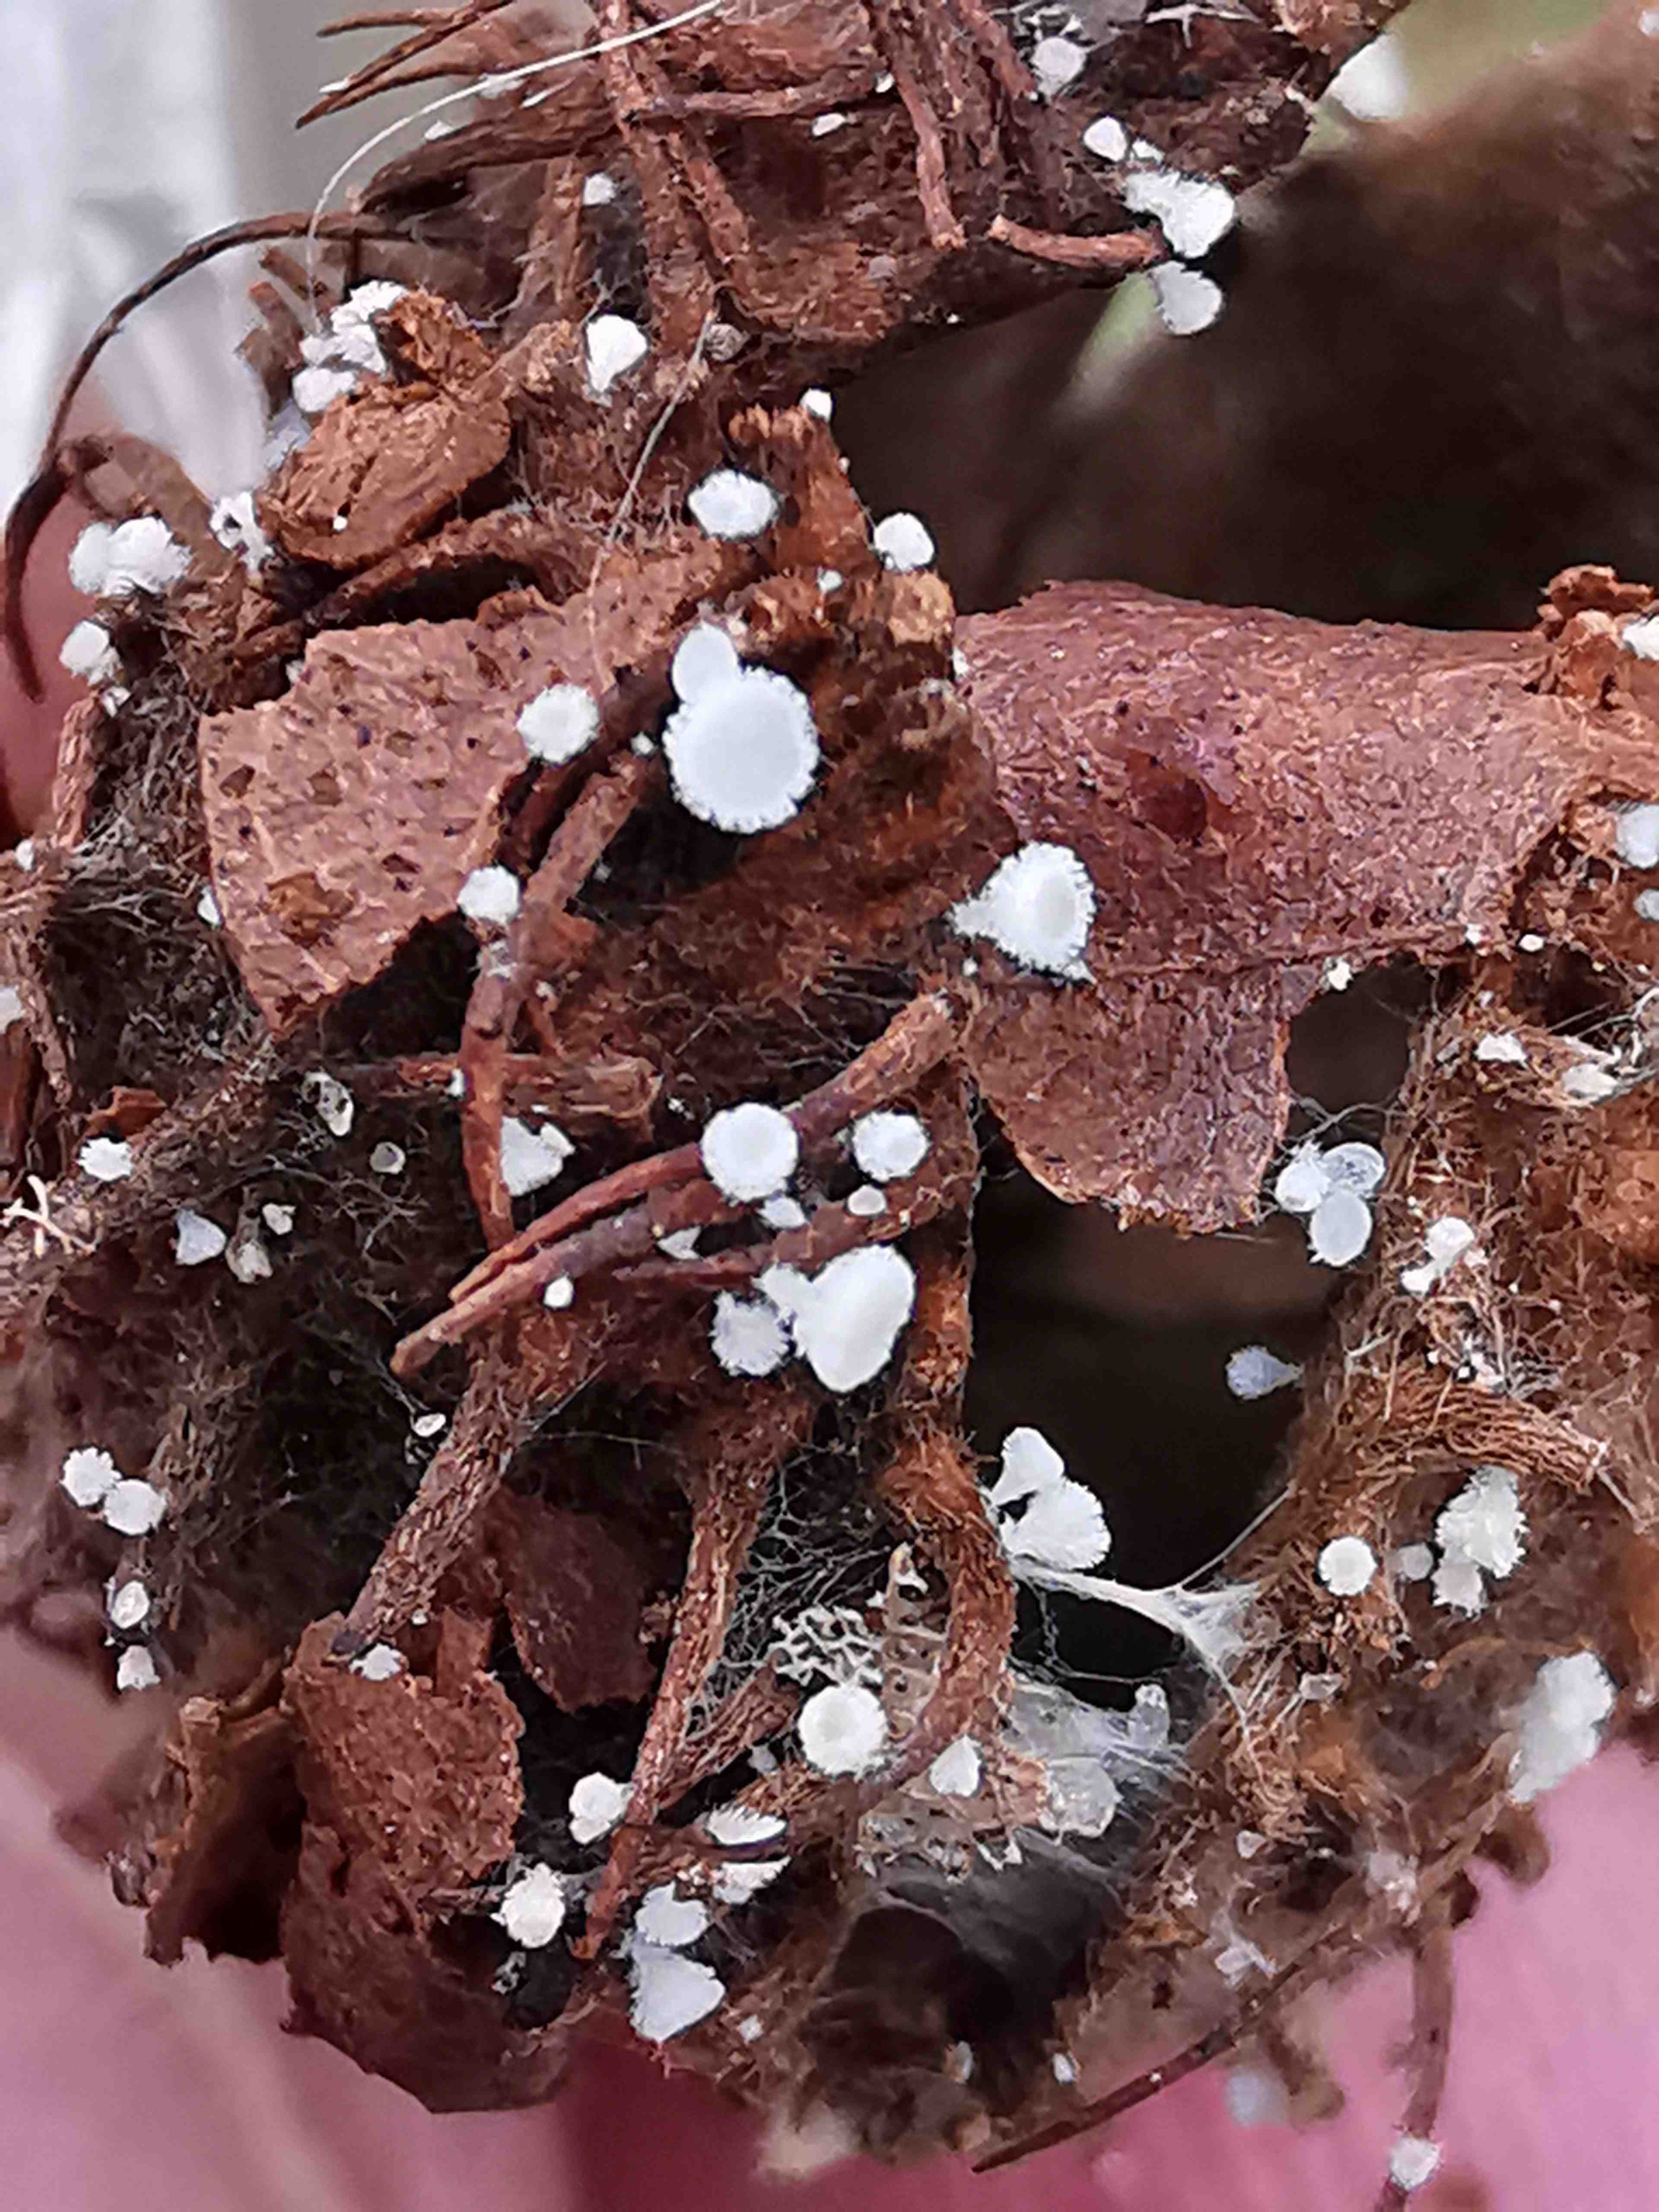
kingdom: Fungi
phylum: Ascomycota
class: Leotiomycetes
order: Helotiales
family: Lachnaceae
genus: Lachnum
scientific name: Lachnum virgineum
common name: jomfru-frynseskive
